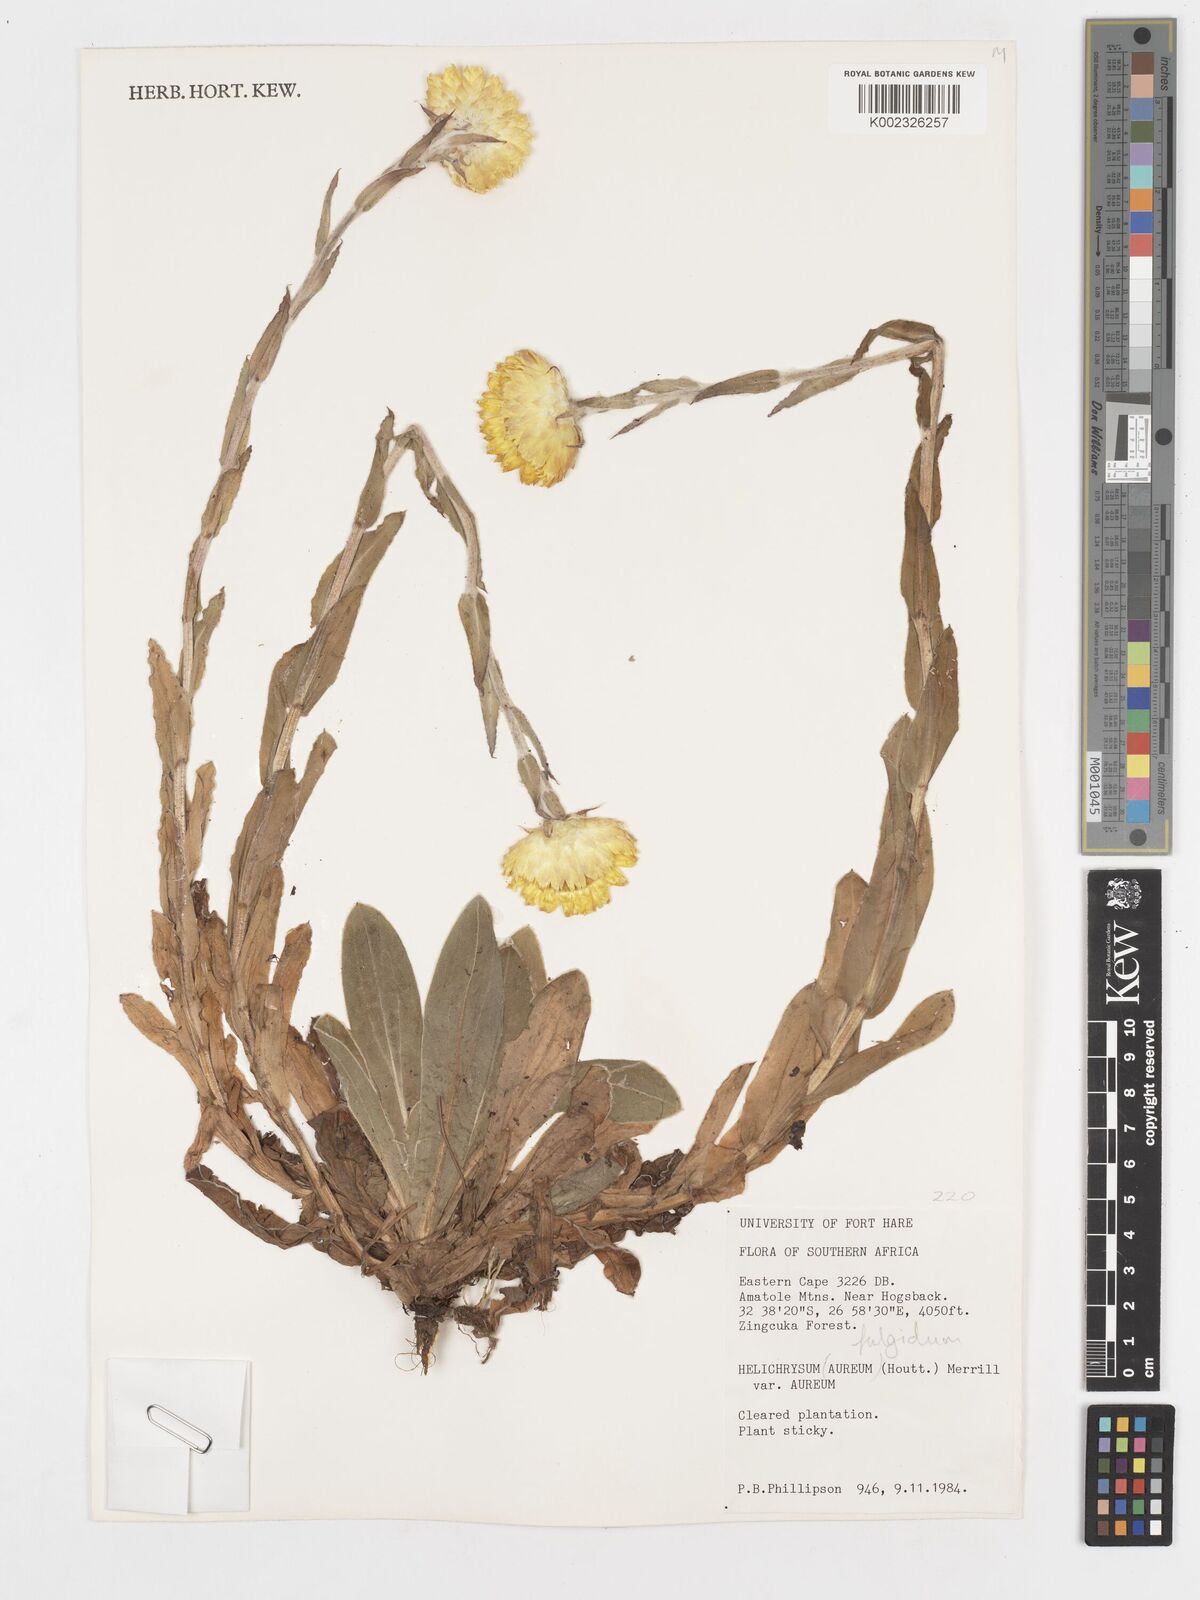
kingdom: Plantae
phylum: Tracheophyta
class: Magnoliopsida
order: Asterales
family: Asteraceae
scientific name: Asteraceae
